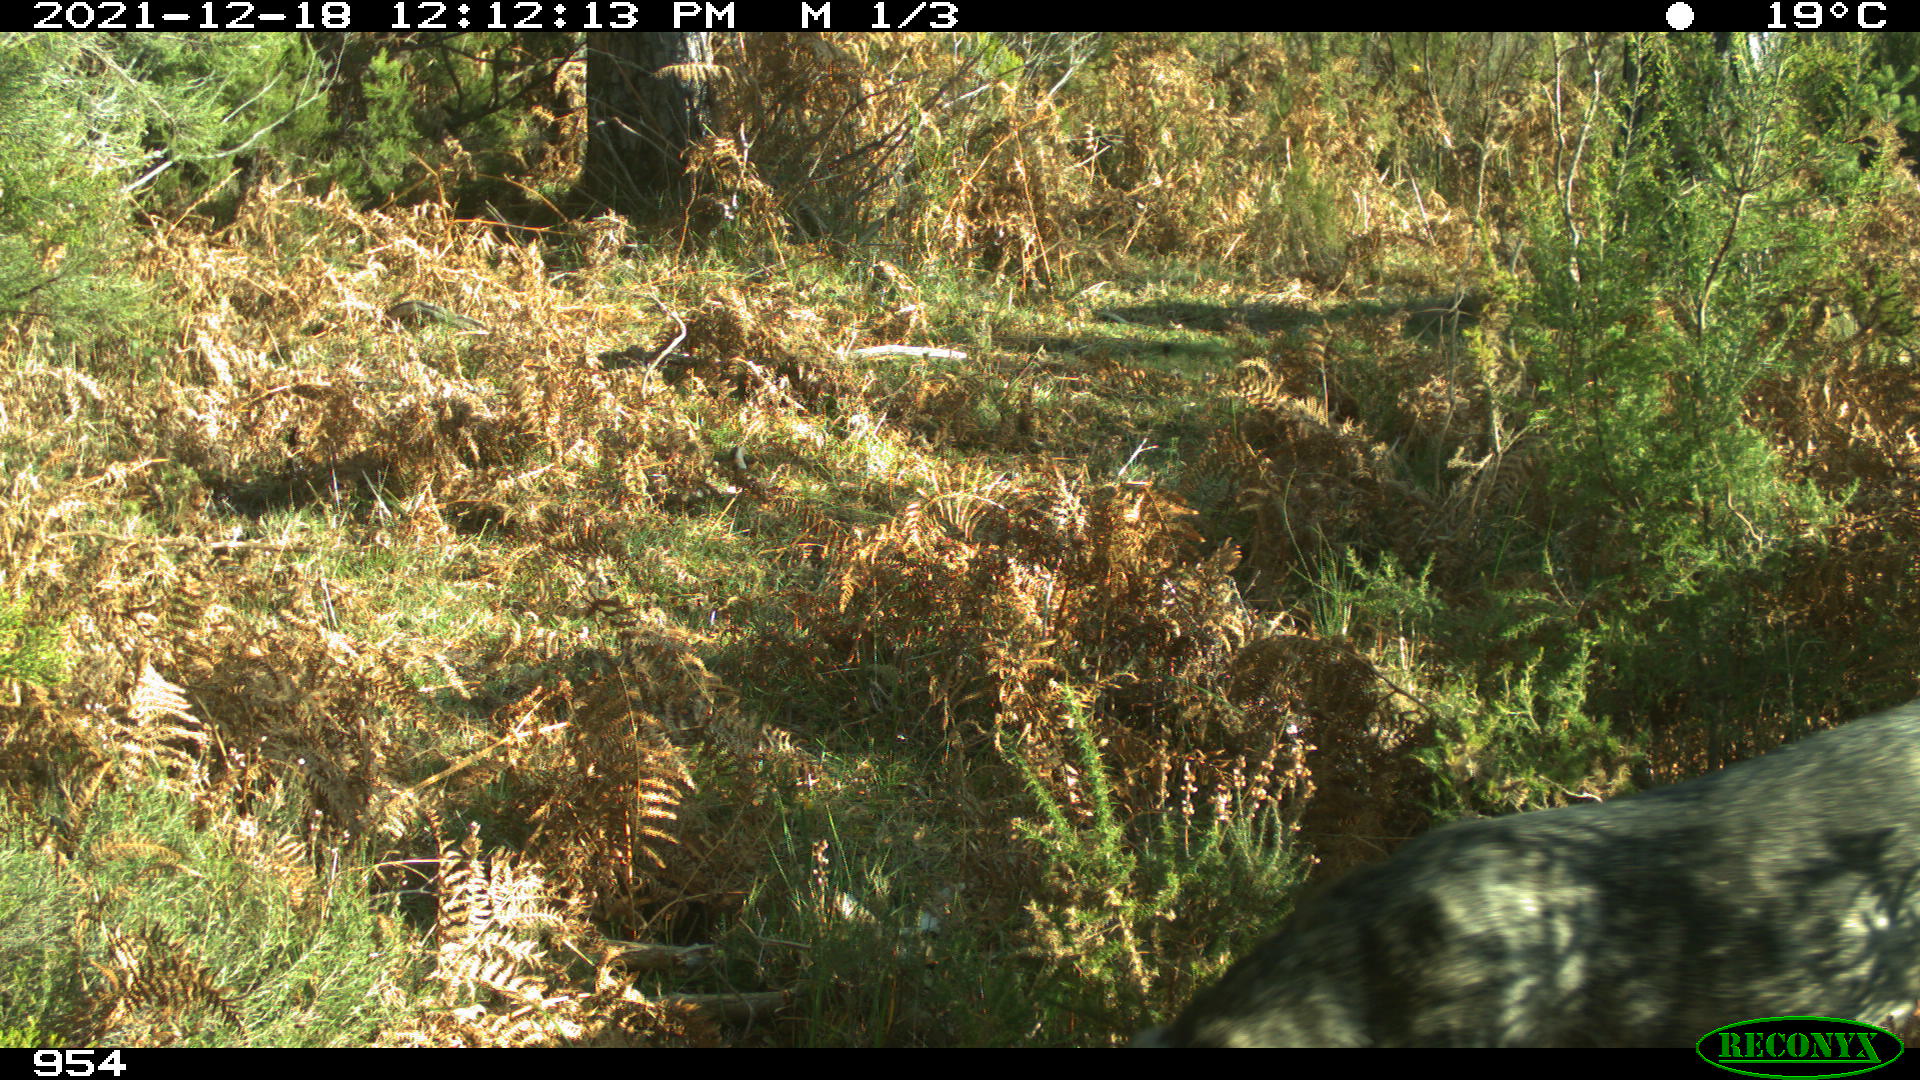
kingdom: Animalia
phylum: Chordata
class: Mammalia
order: Carnivora
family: Canidae
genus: Canis
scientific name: Canis lupus
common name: Gray wolf
